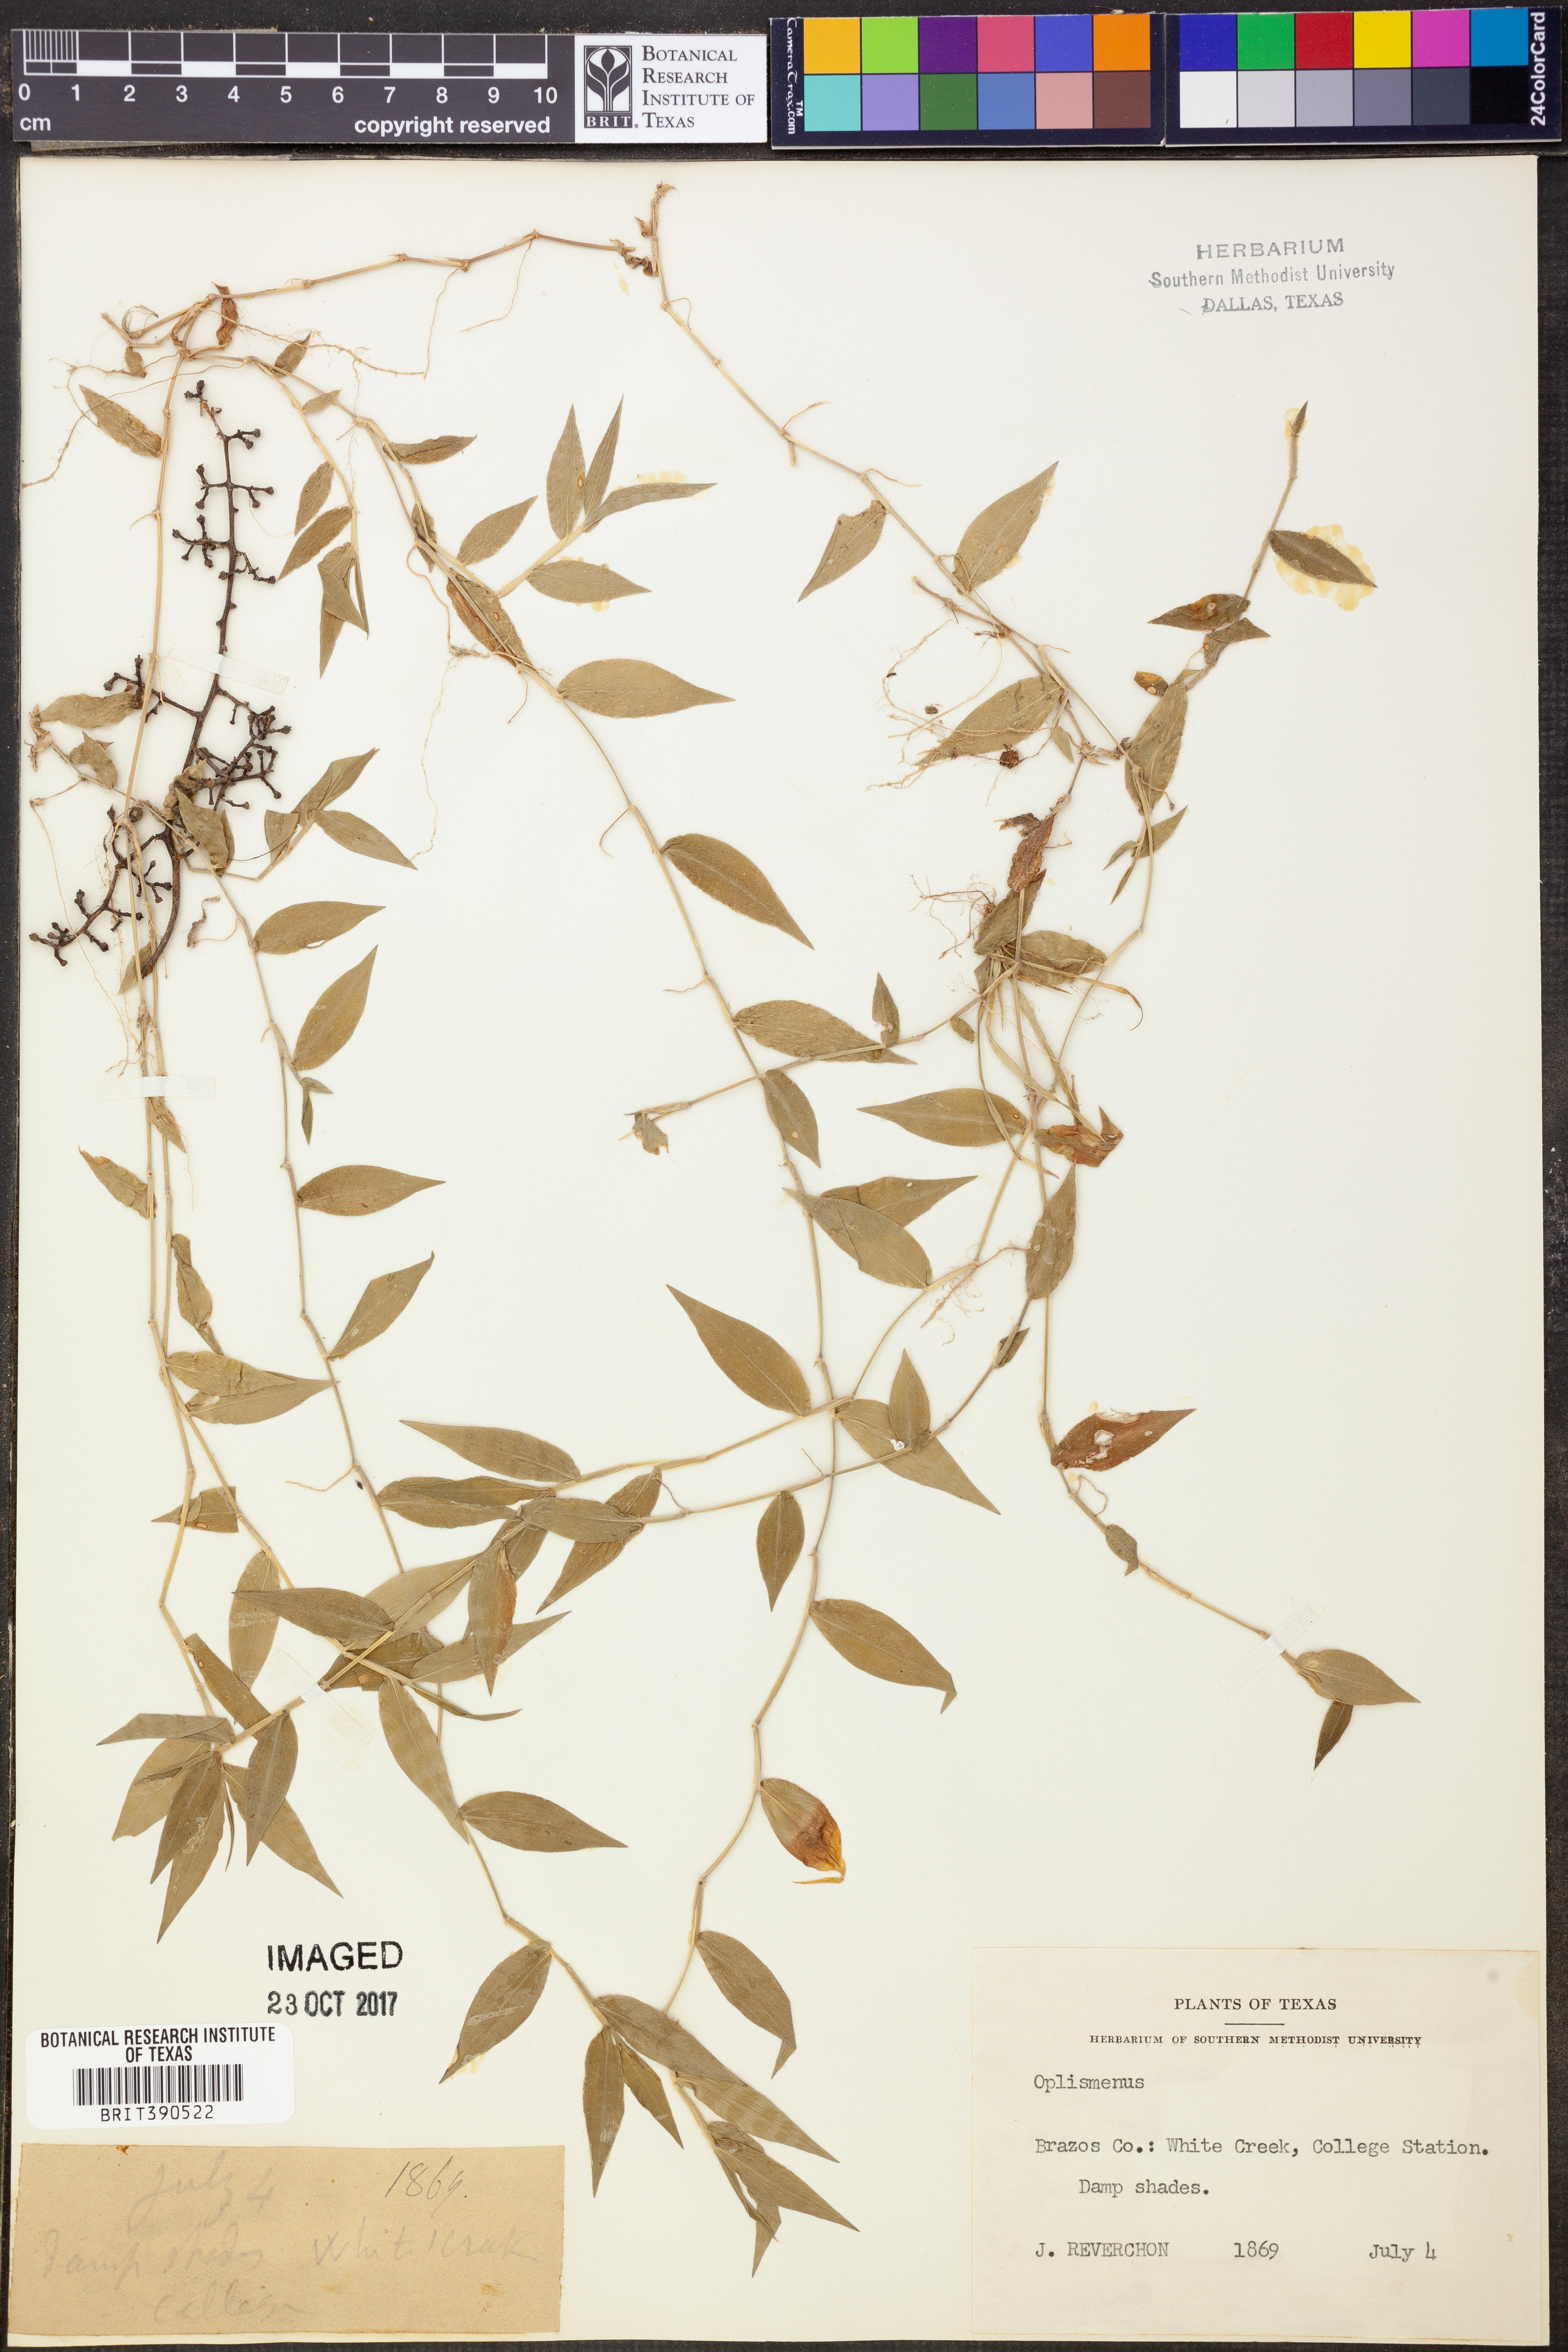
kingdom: Plantae
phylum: Tracheophyta
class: Liliopsida
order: Poales
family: Poaceae
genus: Oplismenus
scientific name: Oplismenus
